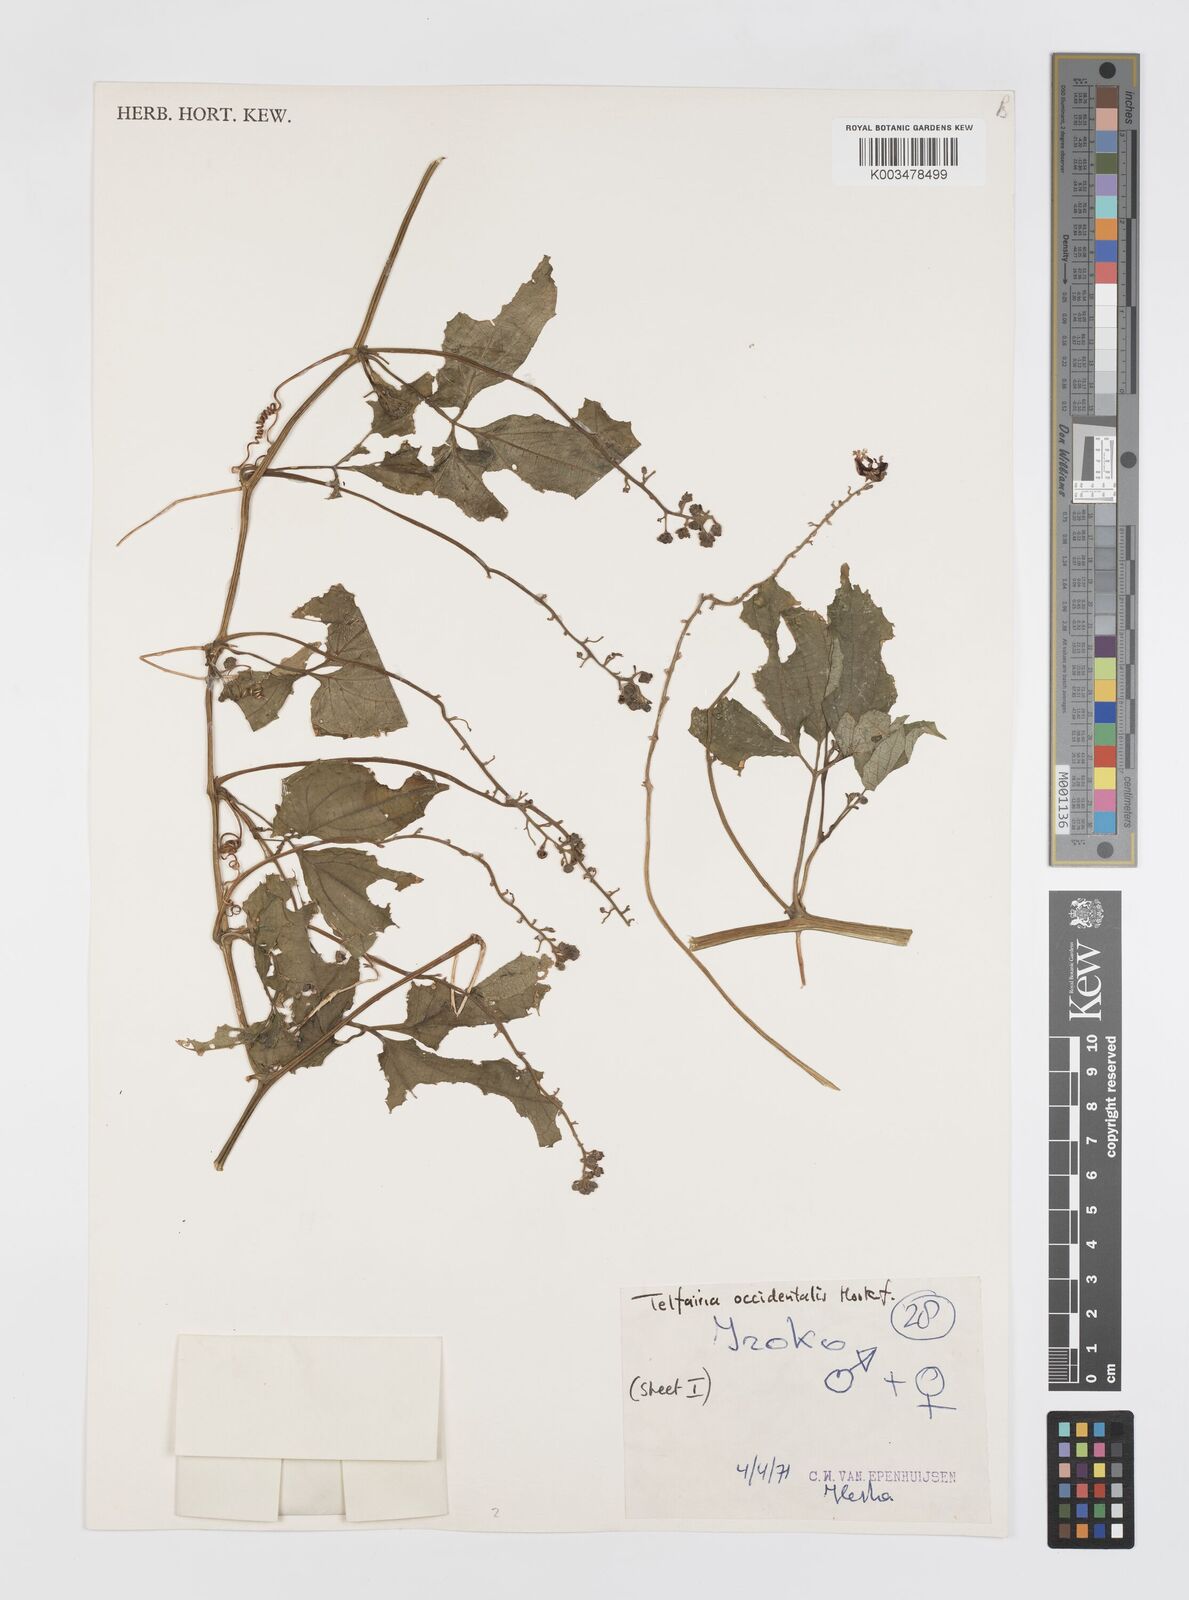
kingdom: Plantae
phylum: Tracheophyta
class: Magnoliopsida
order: Cucurbitales
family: Cucurbitaceae
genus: Telfairia
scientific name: Telfairia occidentalis
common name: Oysternut
